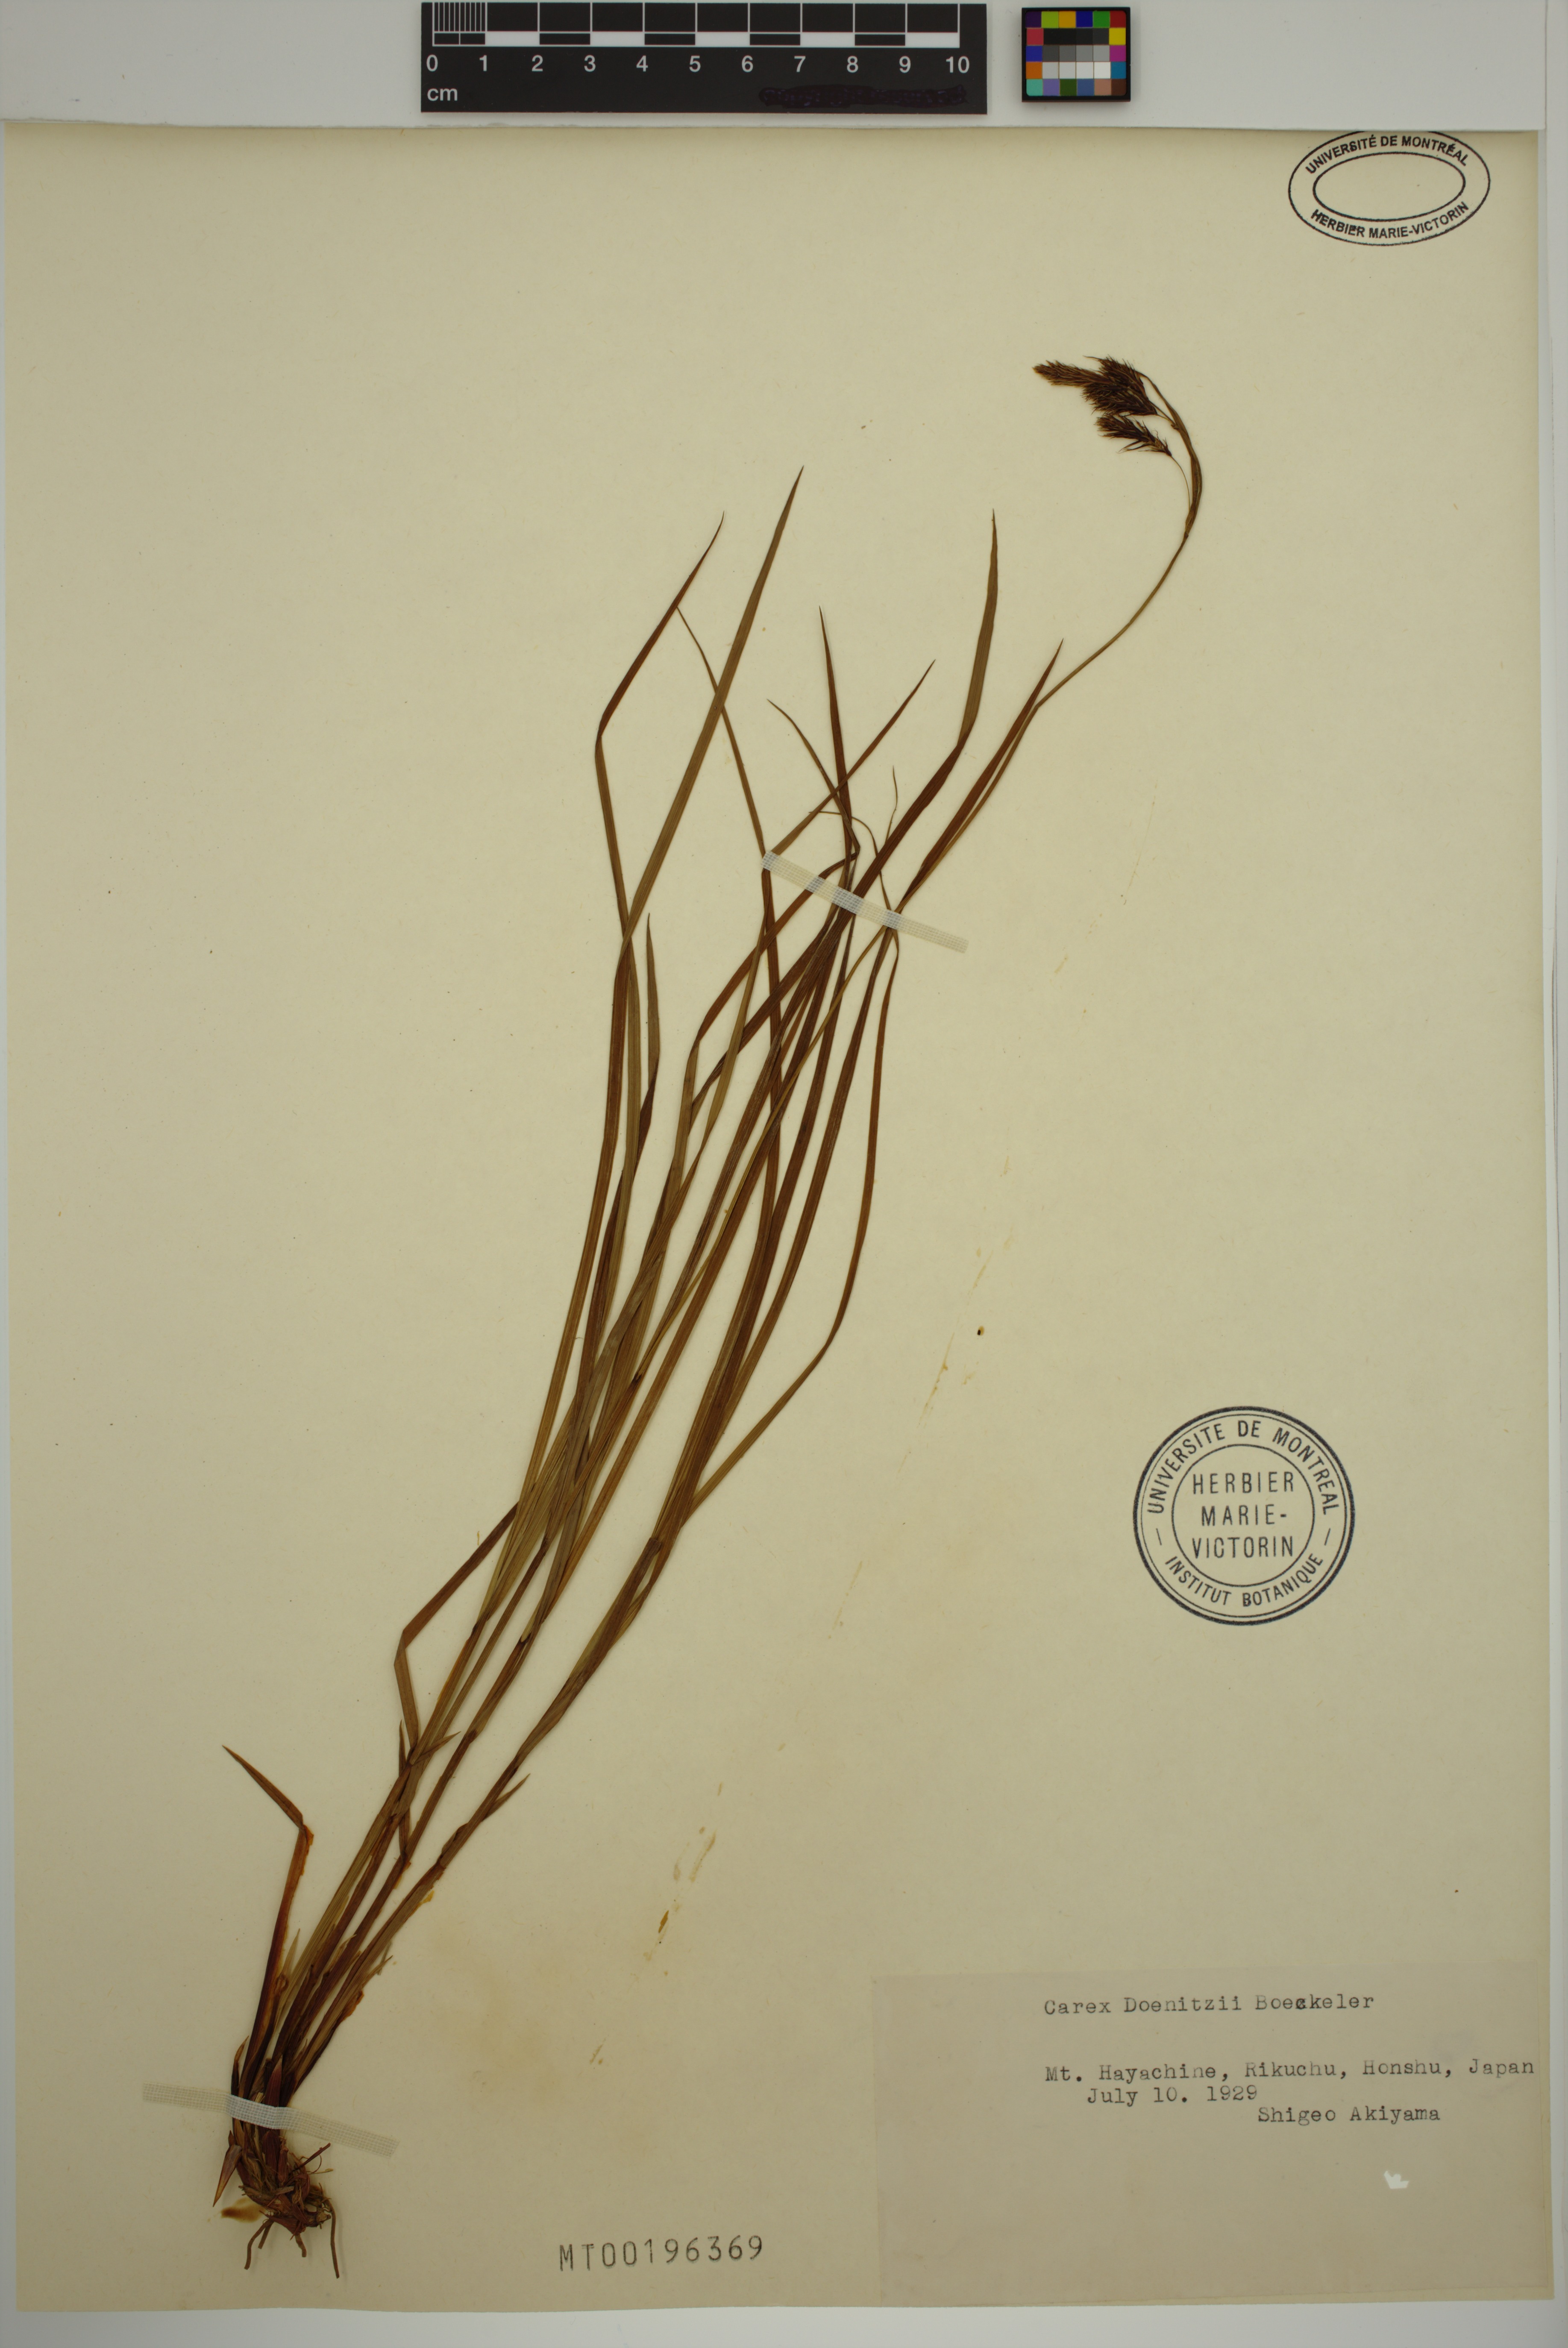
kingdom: Plantae
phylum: Tracheophyta
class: Liliopsida
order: Poales
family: Cyperaceae
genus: Carex
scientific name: Carex doenitzii
